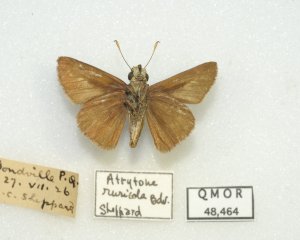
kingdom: Animalia
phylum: Arthropoda
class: Insecta
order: Lepidoptera
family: Hesperiidae
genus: Euphyes
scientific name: Euphyes vestris
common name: Dun Skipper
